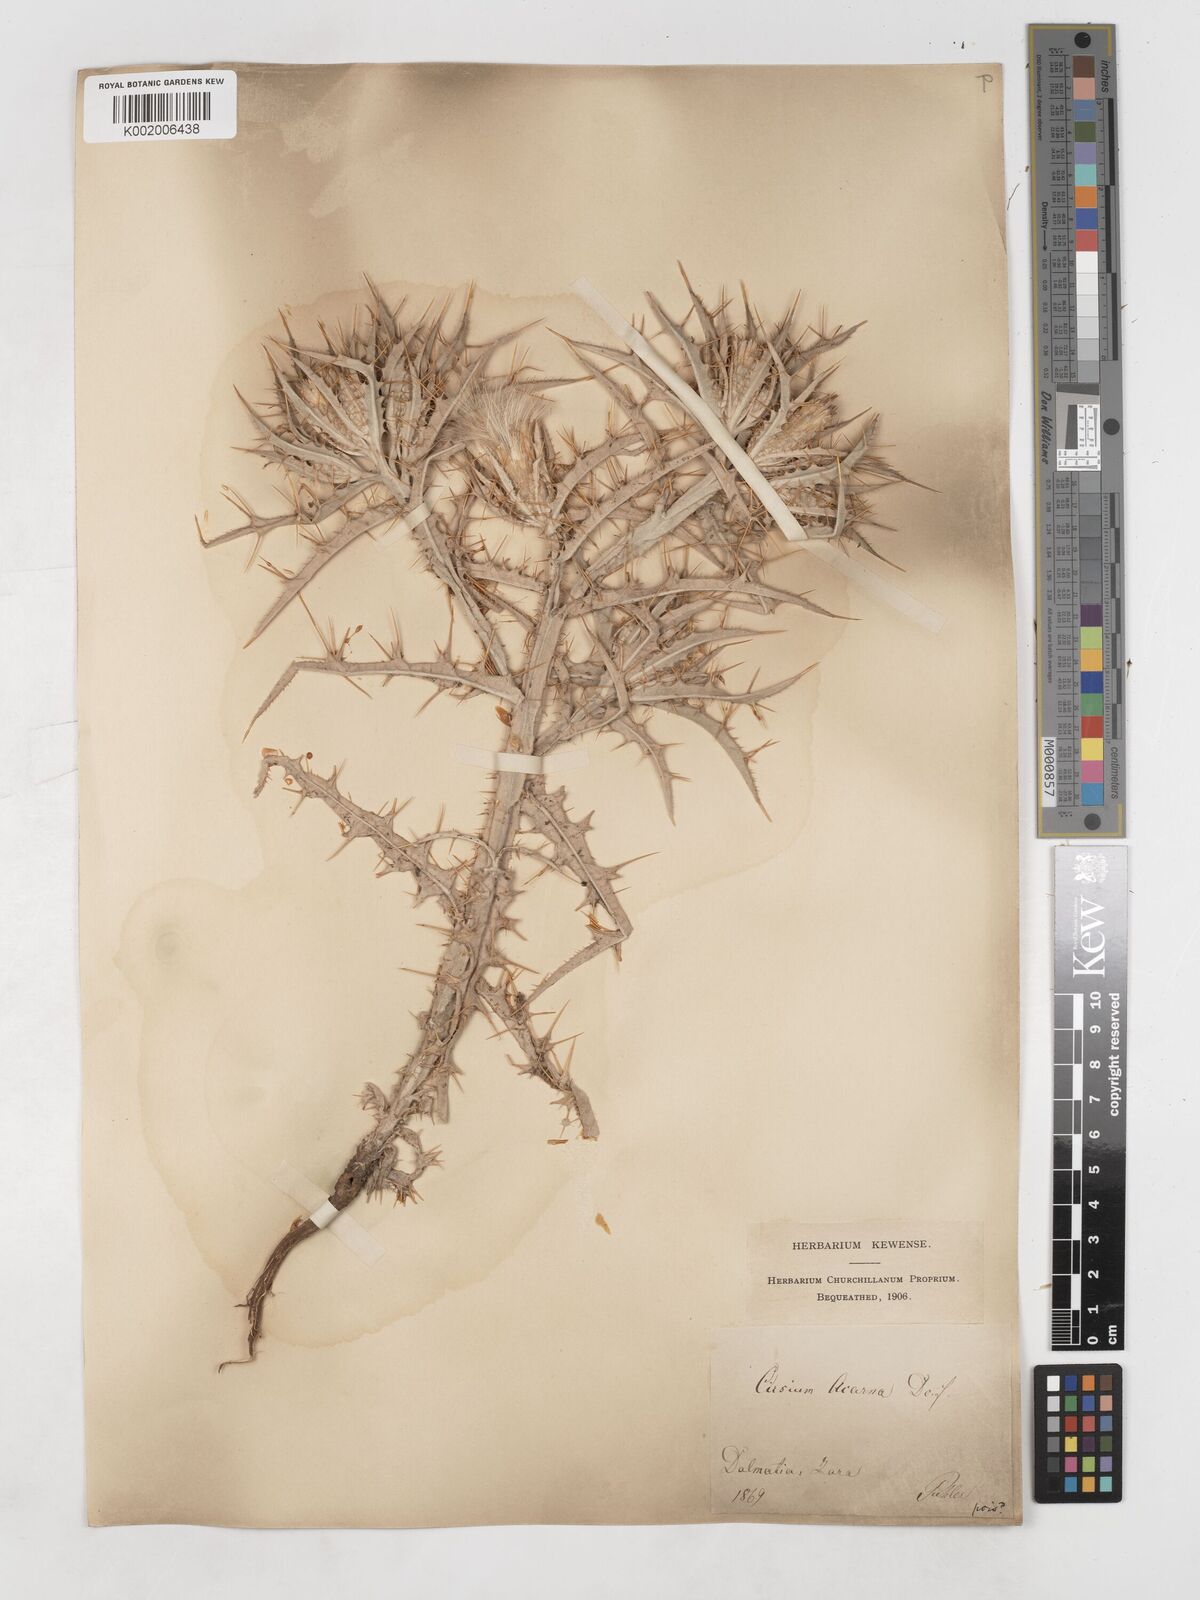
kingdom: Plantae
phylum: Tracheophyta
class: Magnoliopsida
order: Asterales
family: Asteraceae
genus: Picnomon
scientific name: Picnomon acarna
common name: Soldier thistle
